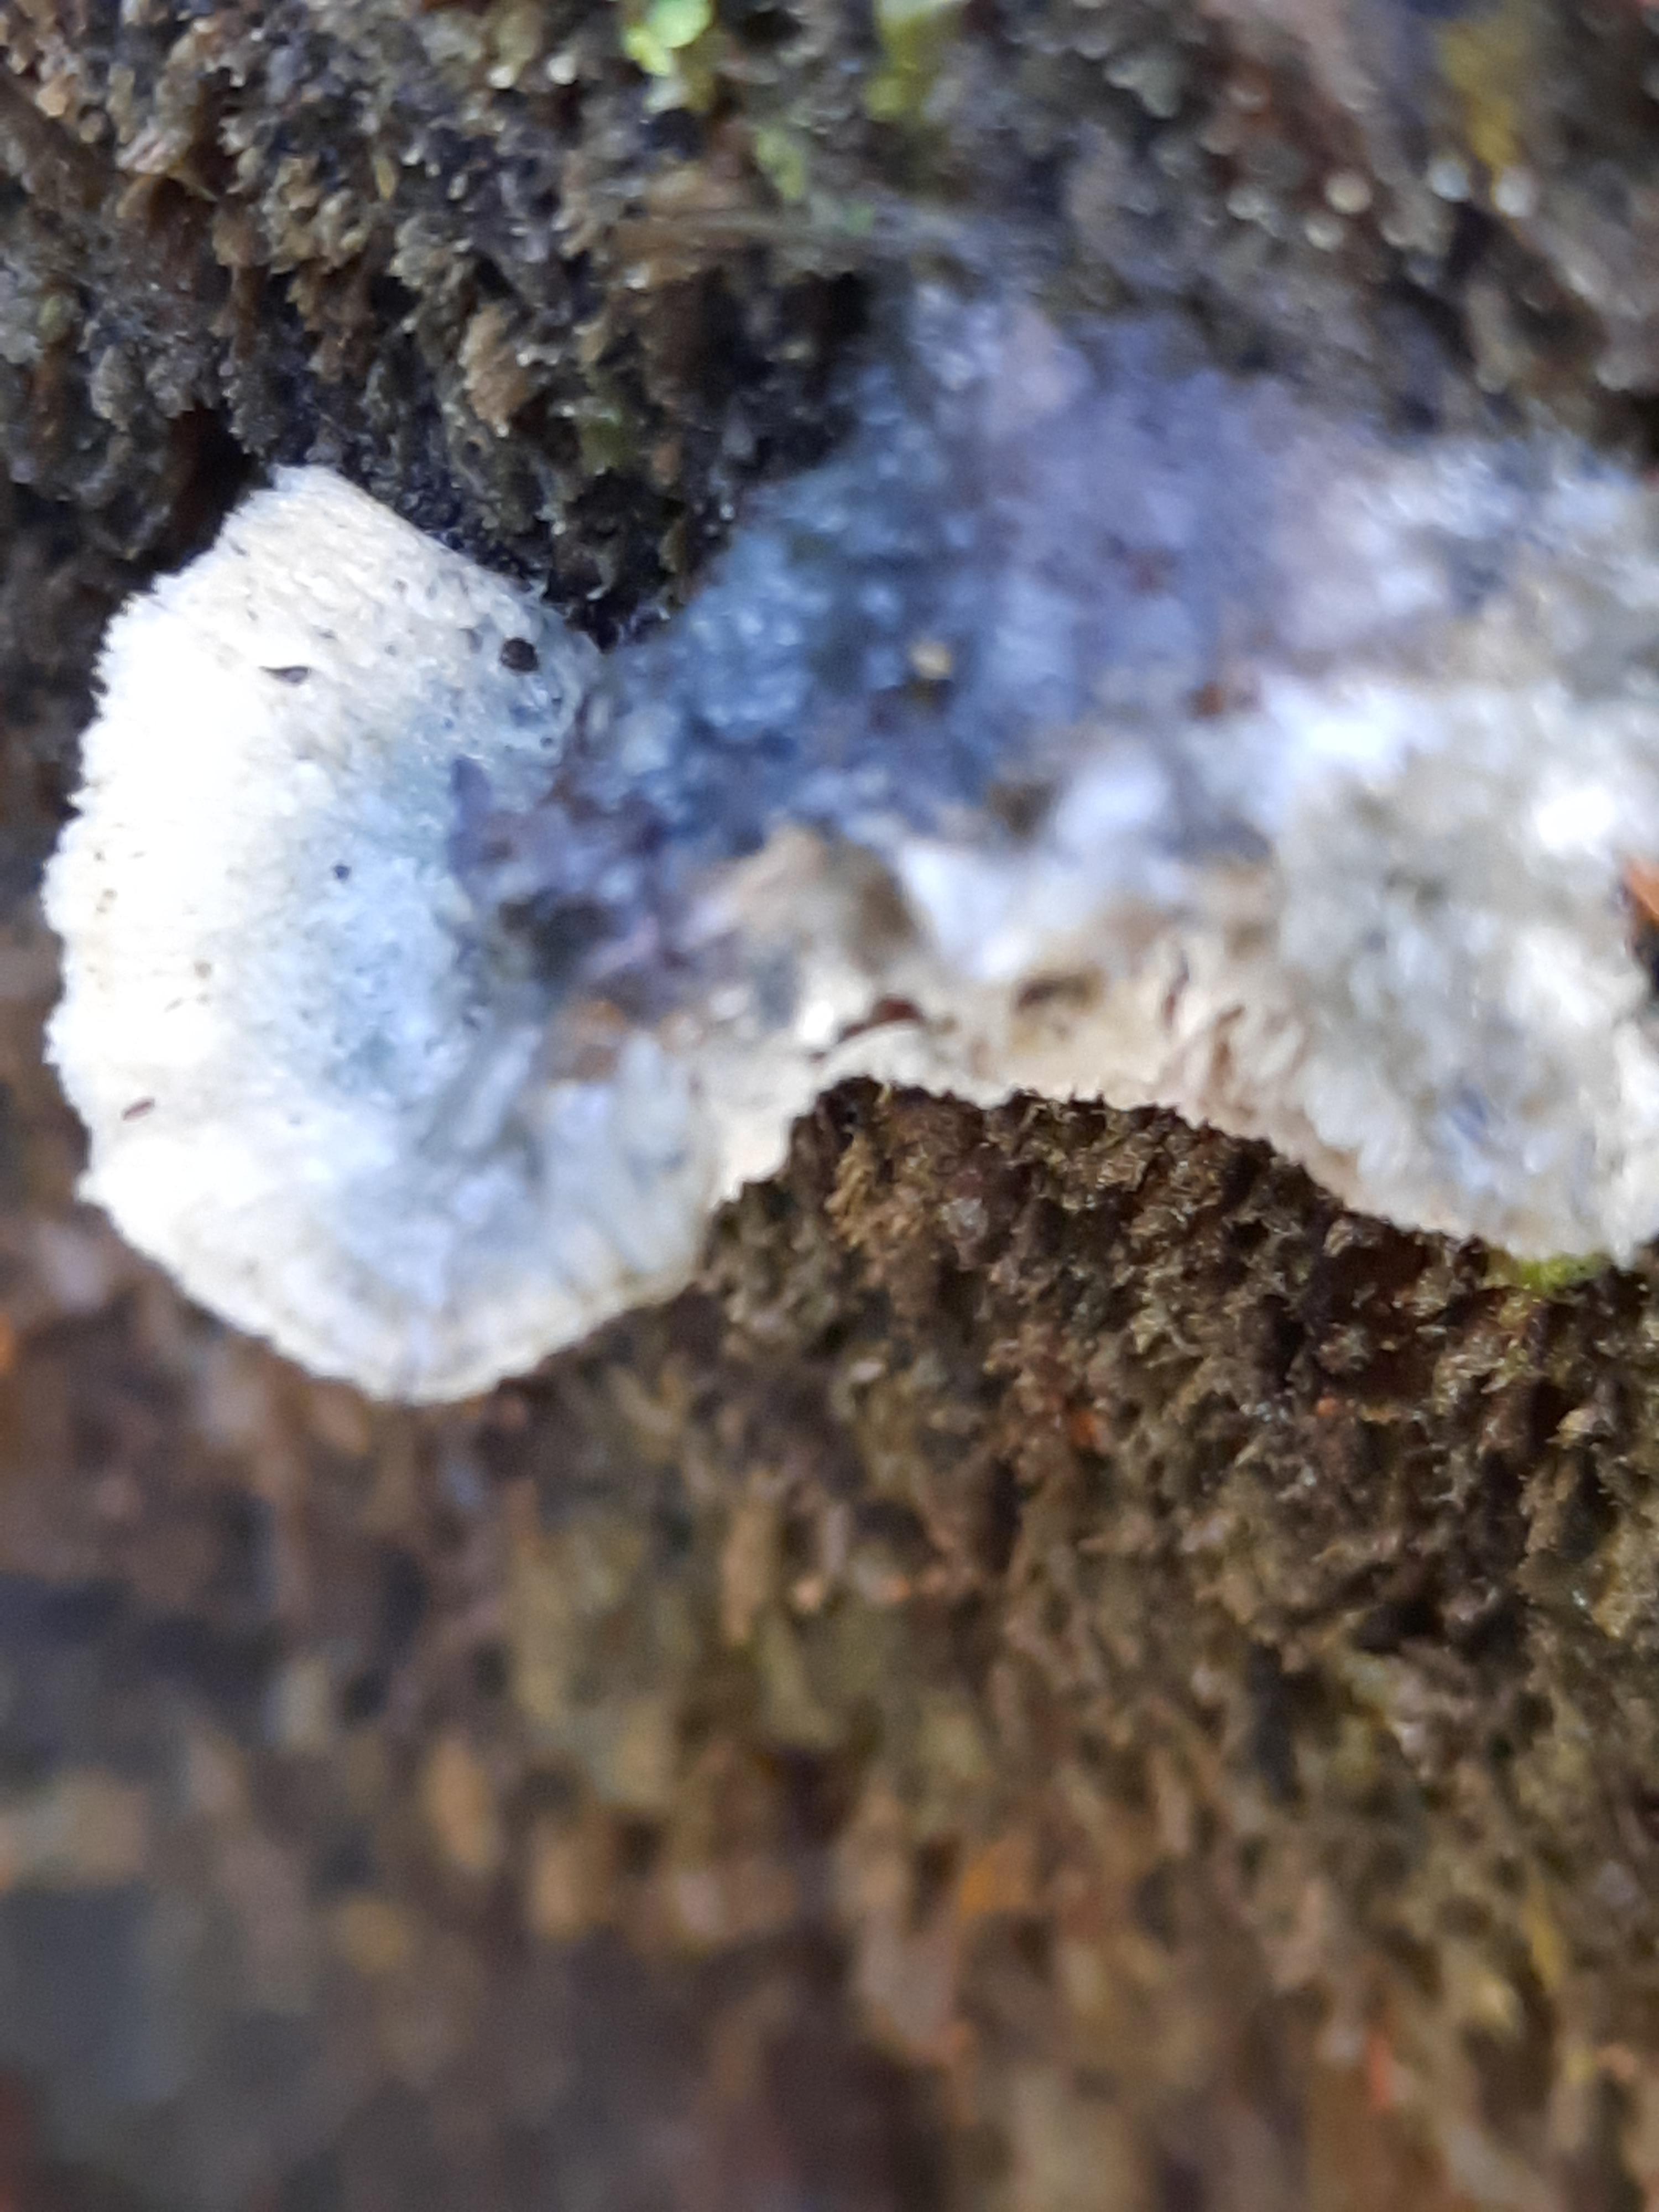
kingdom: Fungi
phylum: Basidiomycota
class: Agaricomycetes
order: Polyporales
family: Polyporaceae
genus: Cyanosporus
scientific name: Cyanosporus caesius
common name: blålig kødporesvamp
